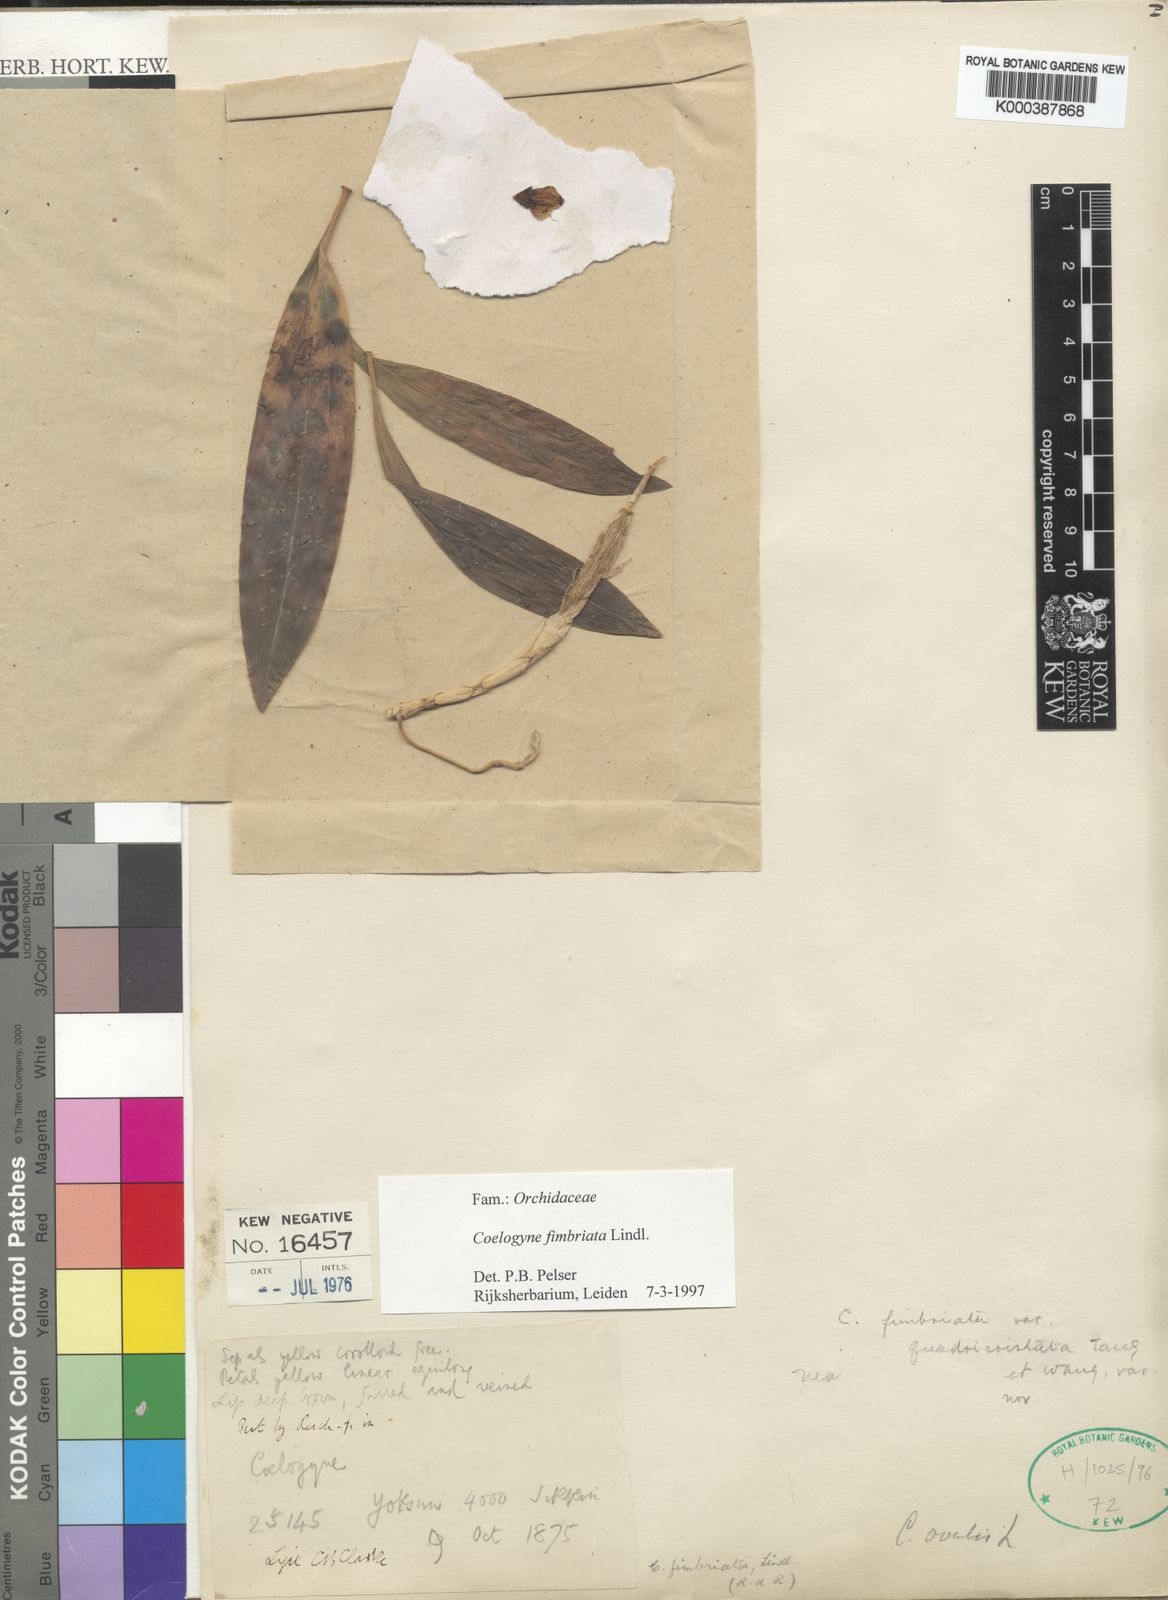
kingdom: Plantae
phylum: Tracheophyta
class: Liliopsida
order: Asparagales
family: Orchidaceae
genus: Coelogyne
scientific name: Coelogyne fimbriata
